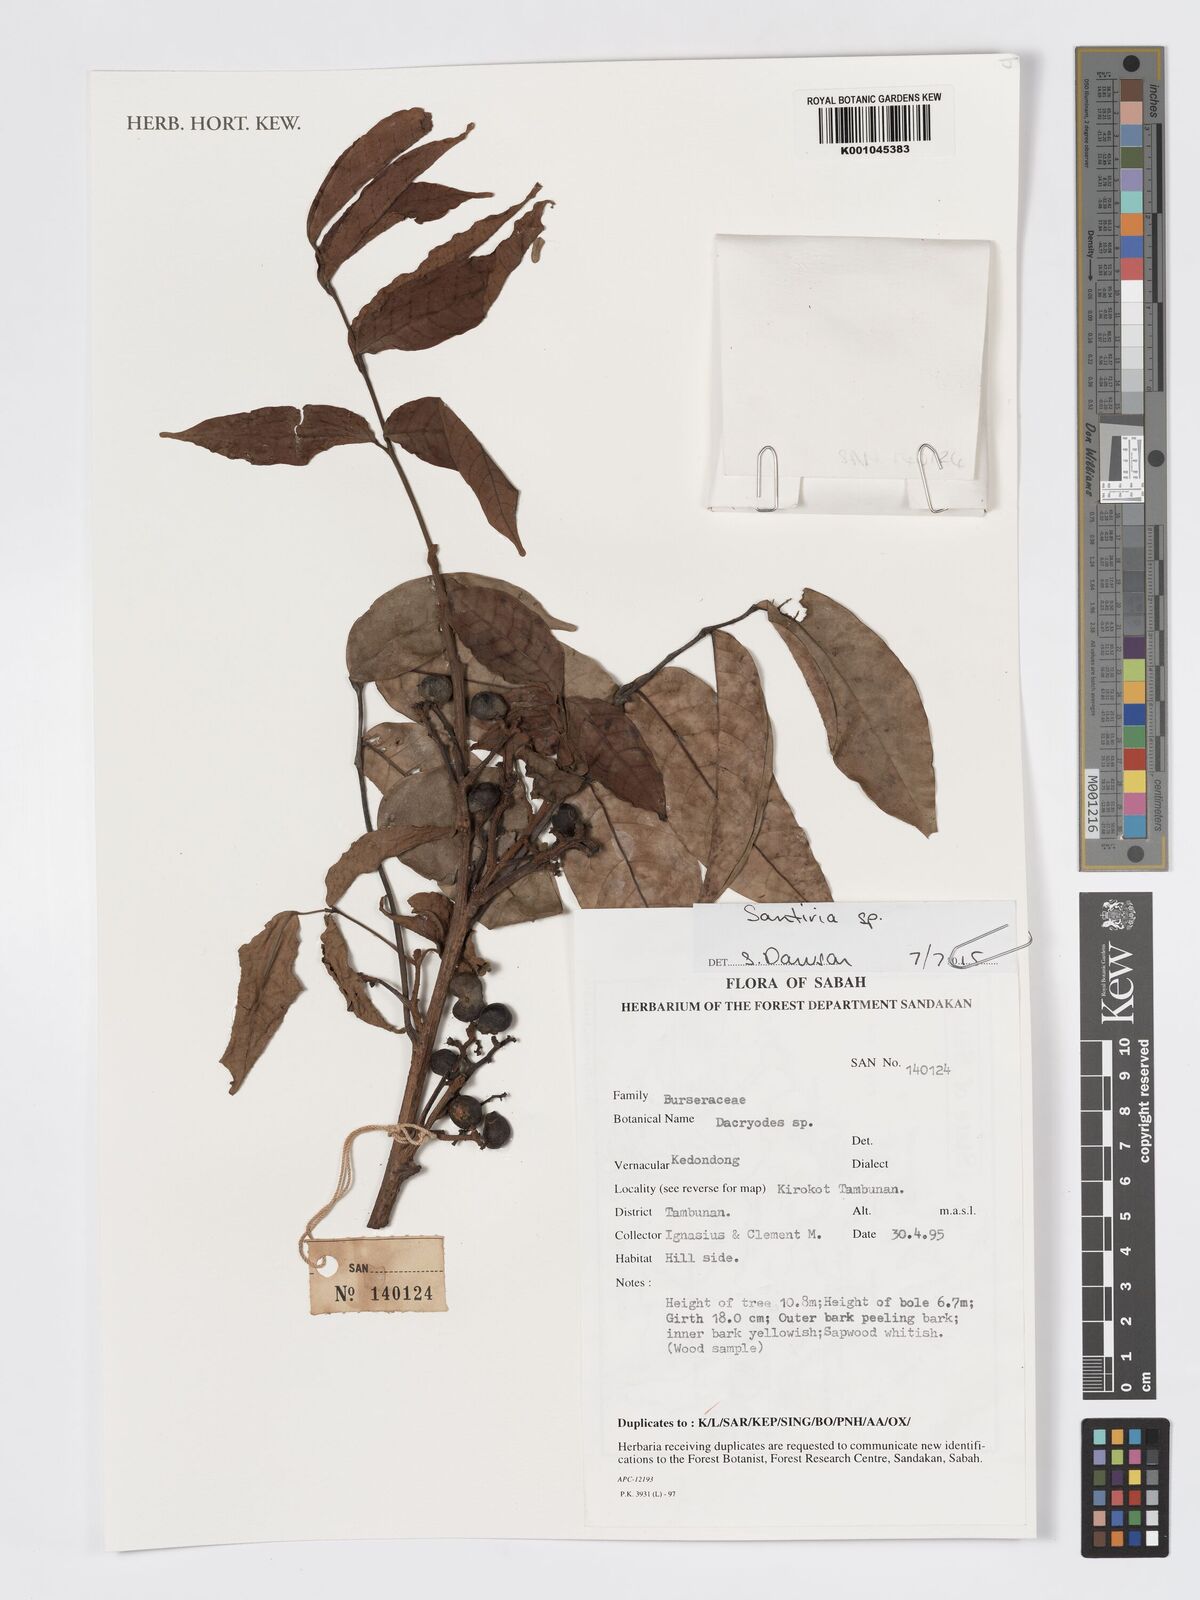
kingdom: Plantae
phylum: Tracheophyta
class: Magnoliopsida
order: Sapindales
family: Burseraceae
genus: Santiria
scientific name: Santiria
